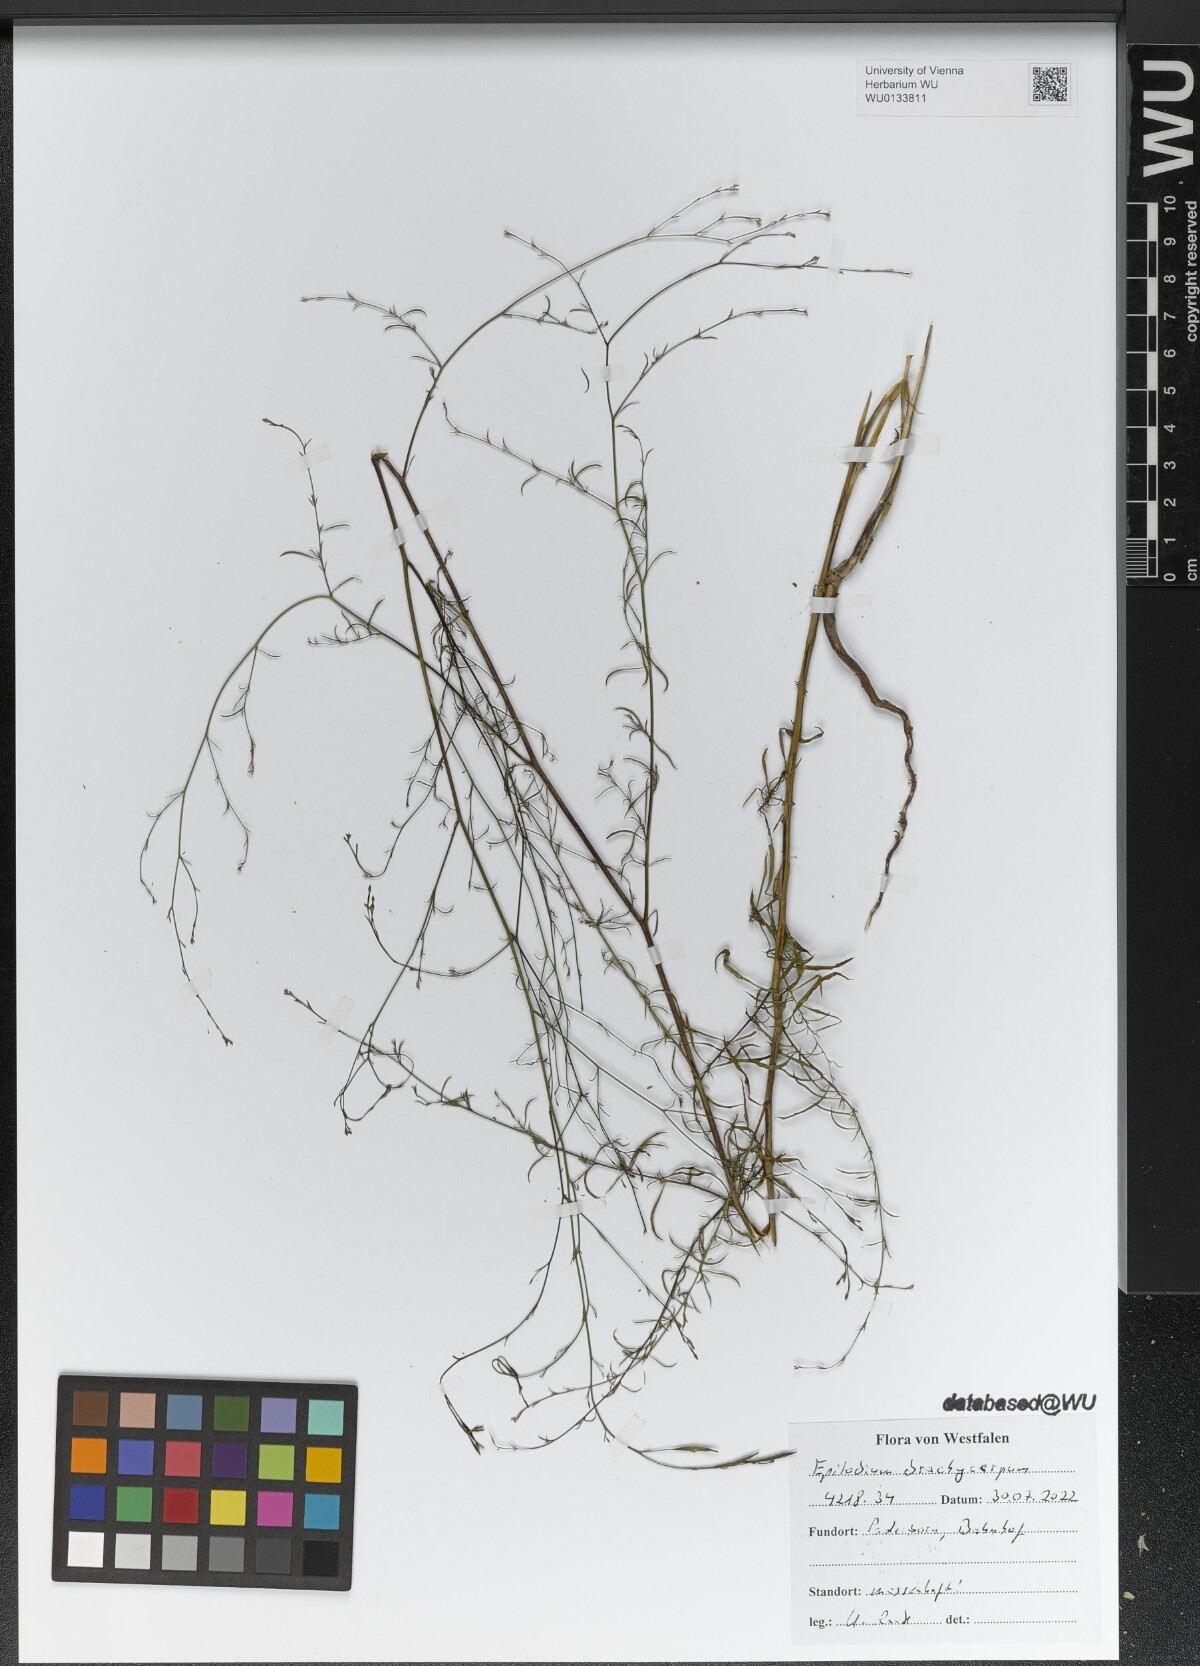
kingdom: Plantae
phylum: Tracheophyta
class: Magnoliopsida
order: Myrtales
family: Onagraceae
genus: Epilobium
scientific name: Epilobium brachycarpum
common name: Annual willowherb
